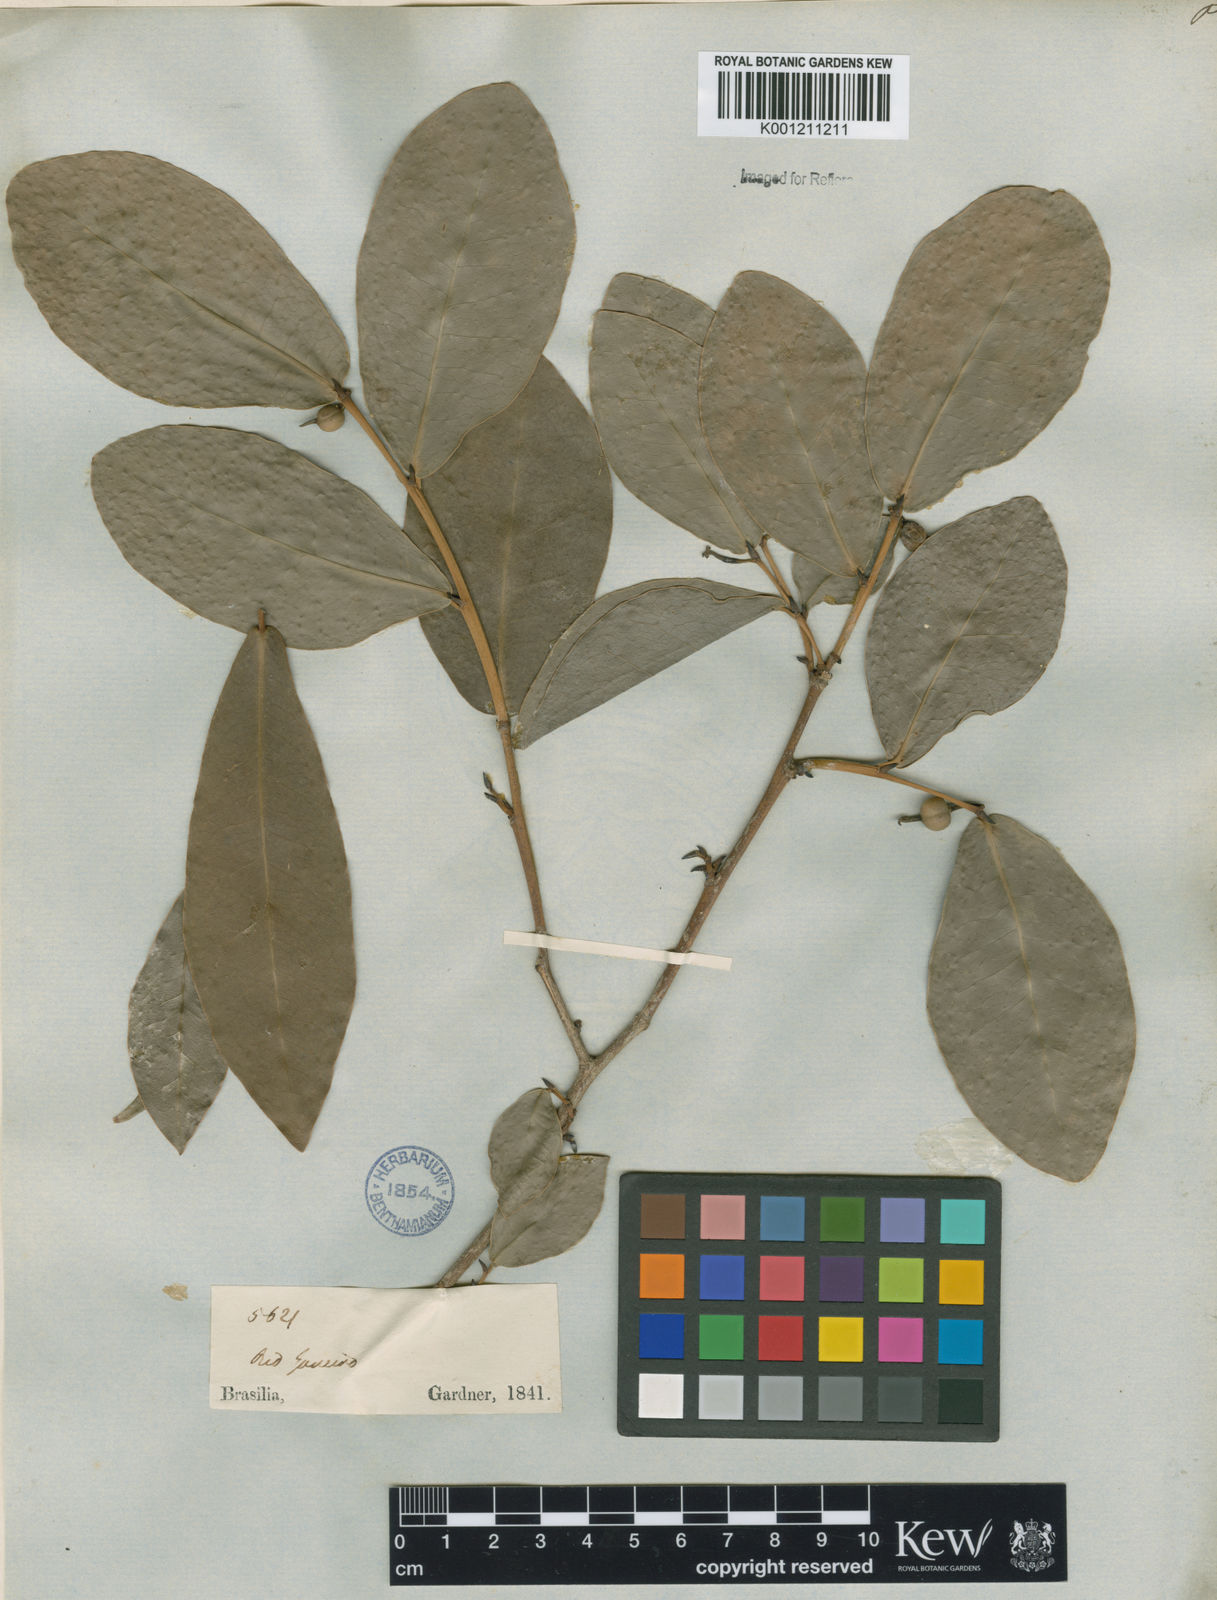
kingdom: Plantae
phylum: Tracheophyta
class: Magnoliopsida
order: Malpighiales
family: Euphorbiaceae
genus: Actinostemon
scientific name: Actinostemon
